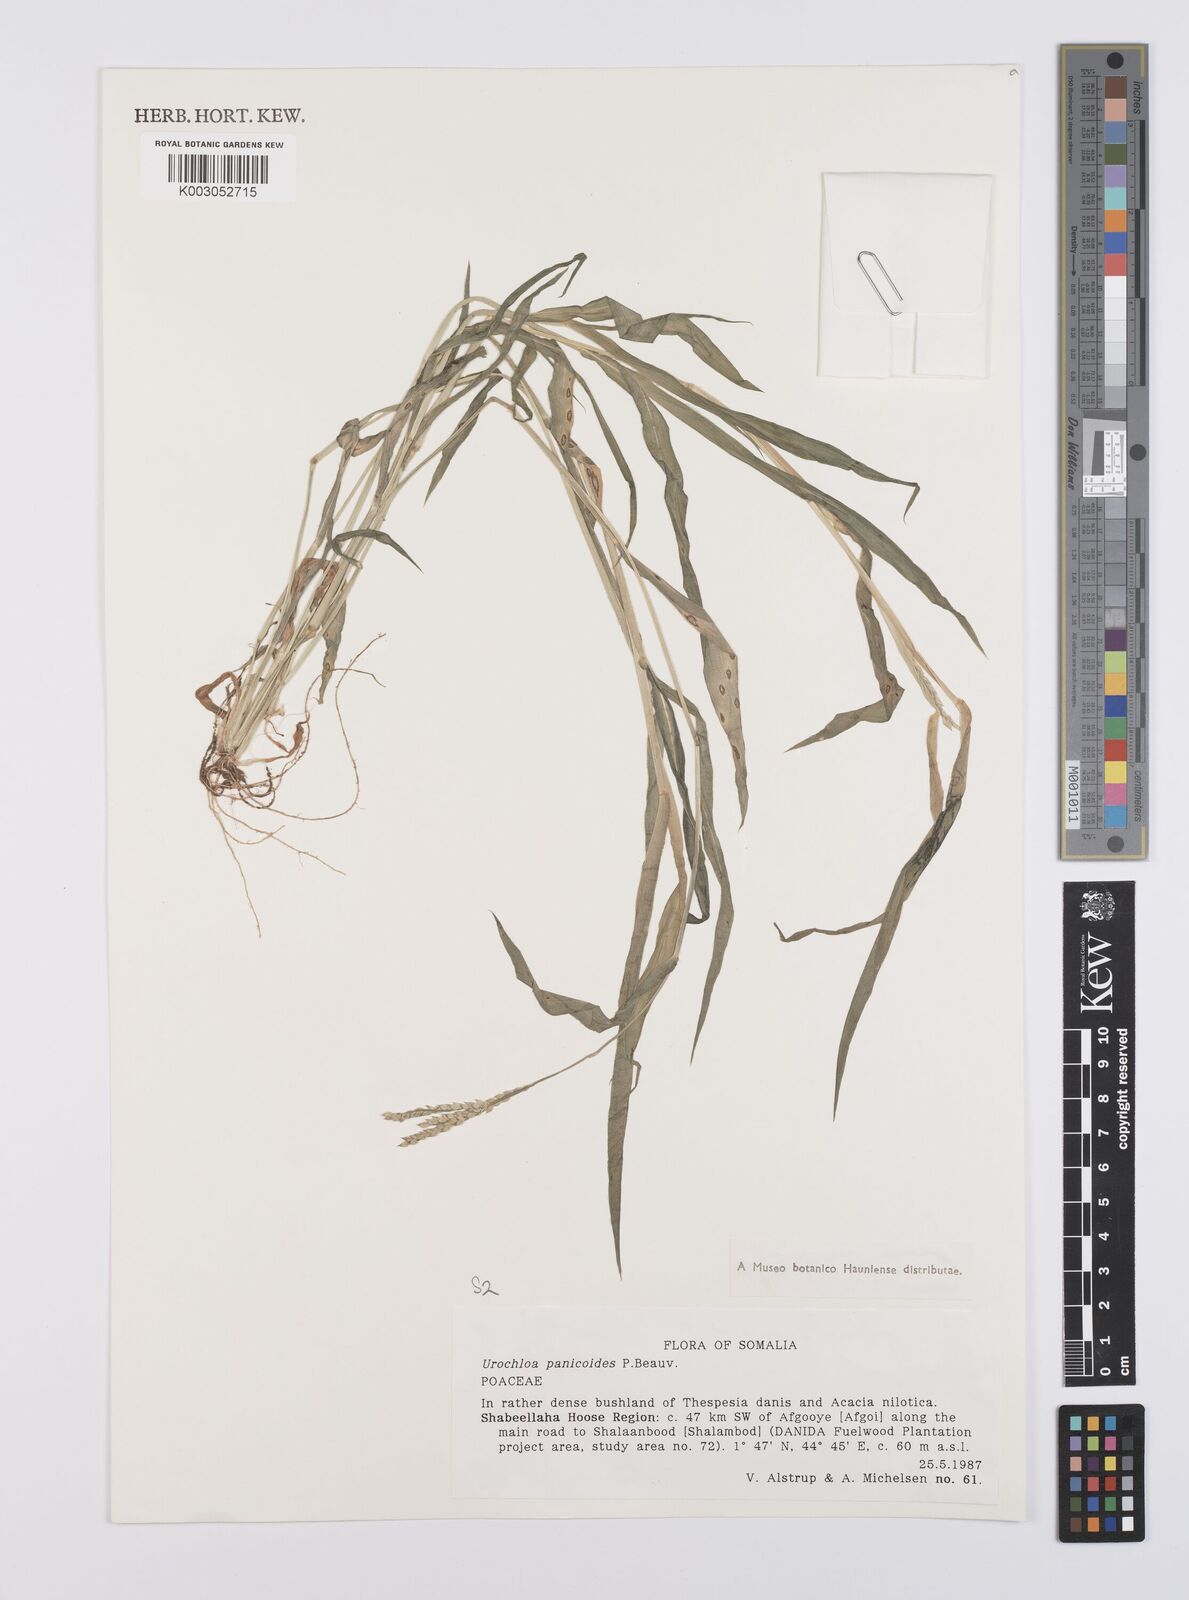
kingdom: Plantae
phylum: Tracheophyta
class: Liliopsida
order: Poales
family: Poaceae
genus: Urochloa
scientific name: Urochloa panicoides
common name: Sharp-flowered signal-grass
